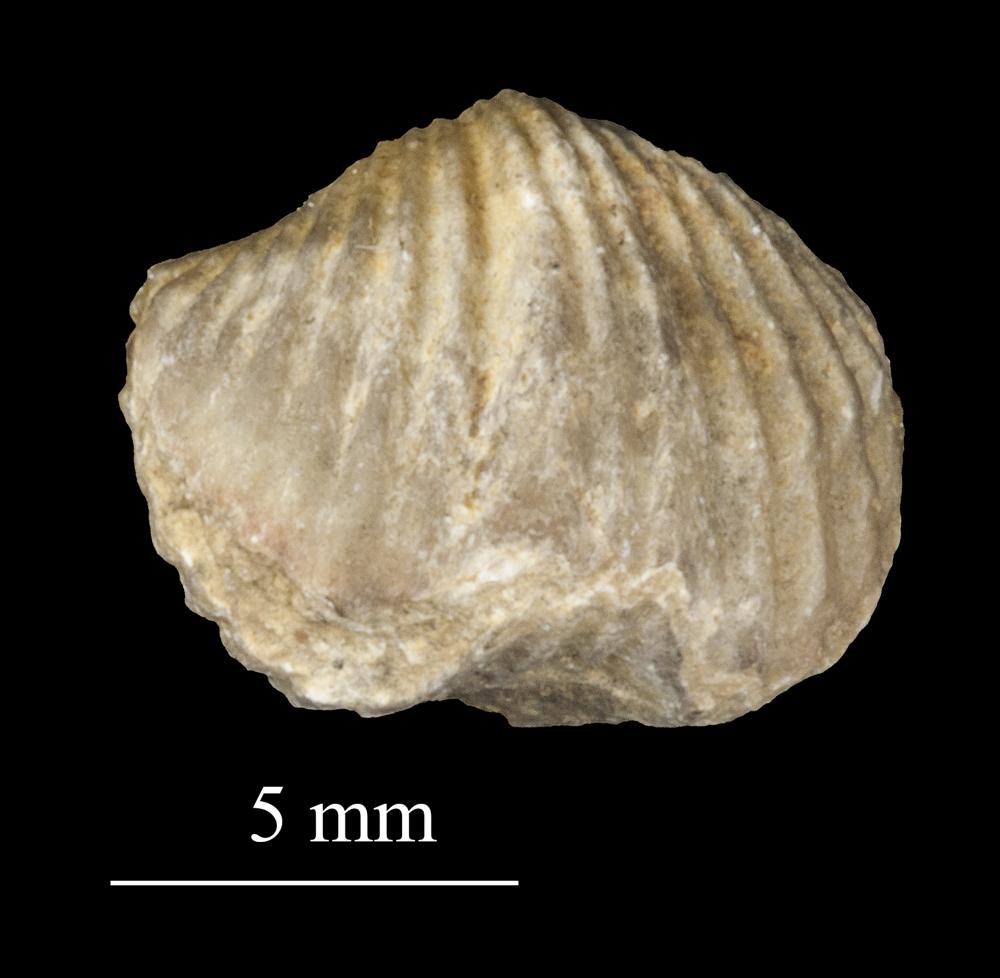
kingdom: Animalia
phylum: Brachiopoda
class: Rhynchonellata
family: Plectorthidae
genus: Platystrophia
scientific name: Platystrophia dentata
